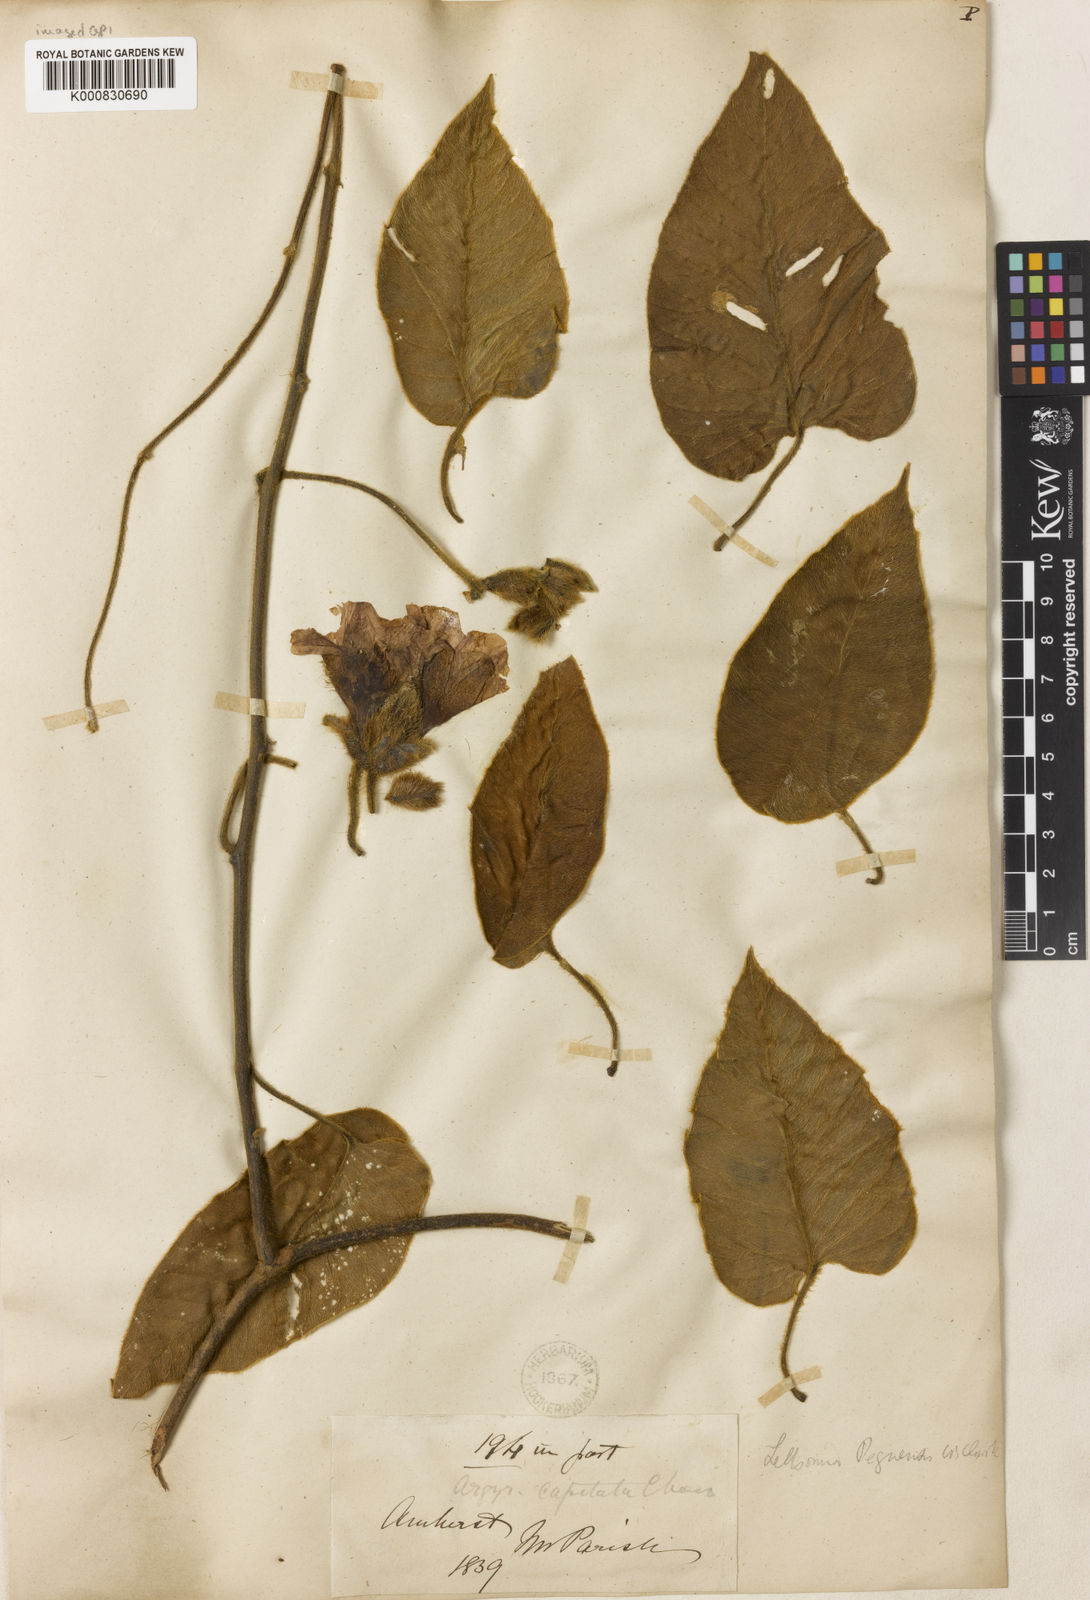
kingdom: Plantae
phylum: Tracheophyta
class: Magnoliopsida
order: Solanales
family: Convolvulaceae
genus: Argyreia
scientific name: Argyreia
